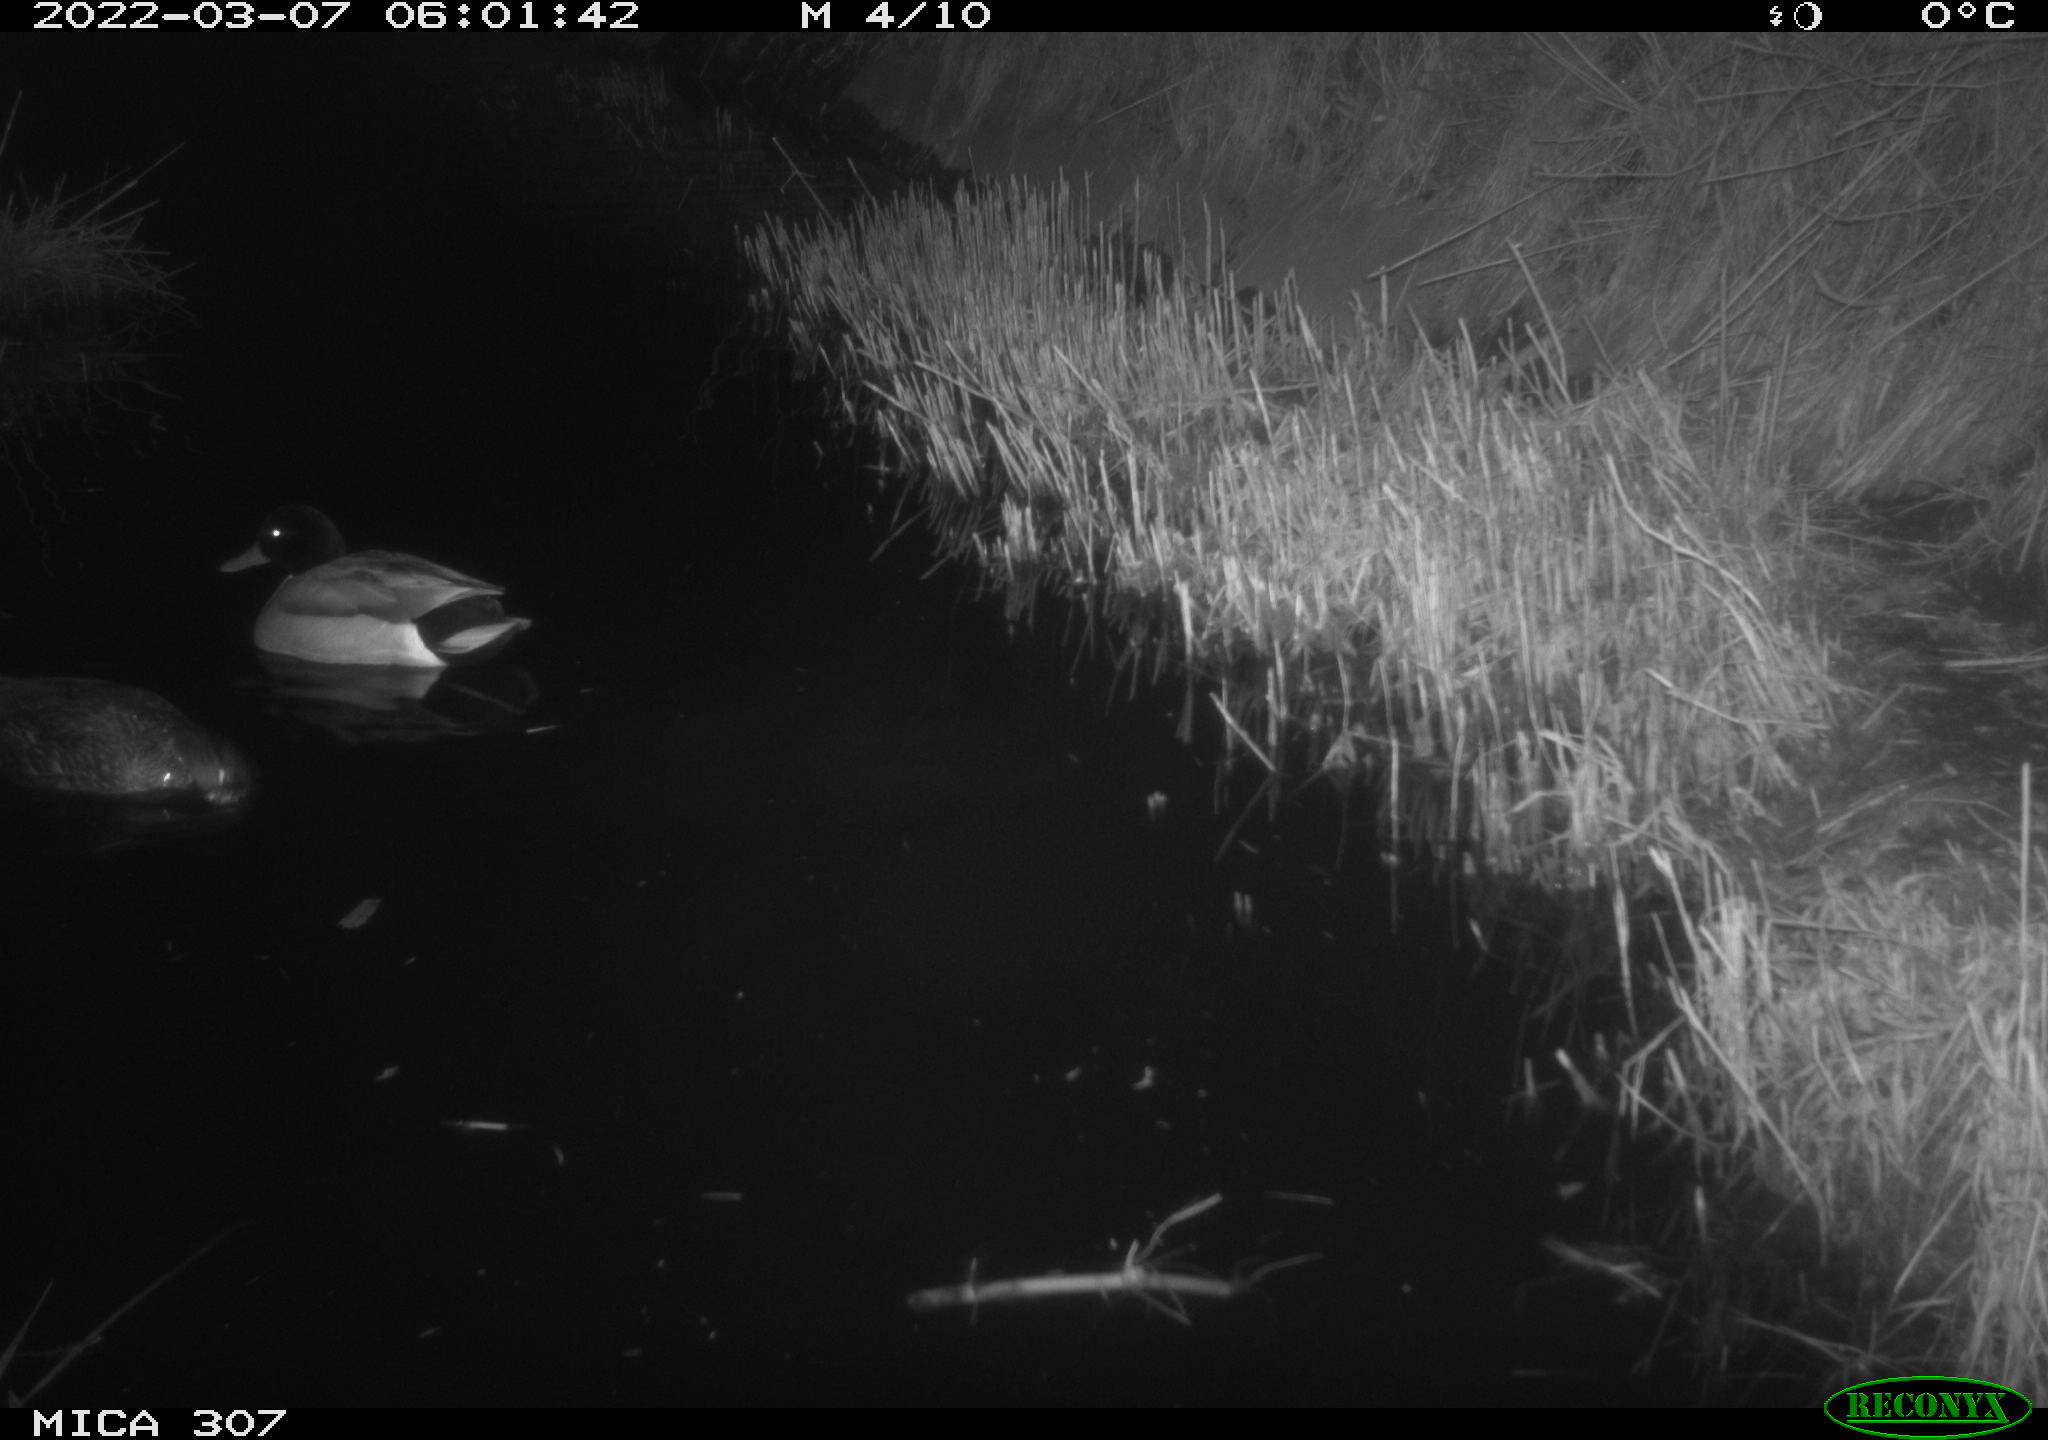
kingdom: Animalia
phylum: Chordata
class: Aves
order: Anseriformes
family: Anatidae
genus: Anas
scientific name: Anas platyrhynchos
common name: Mallard
